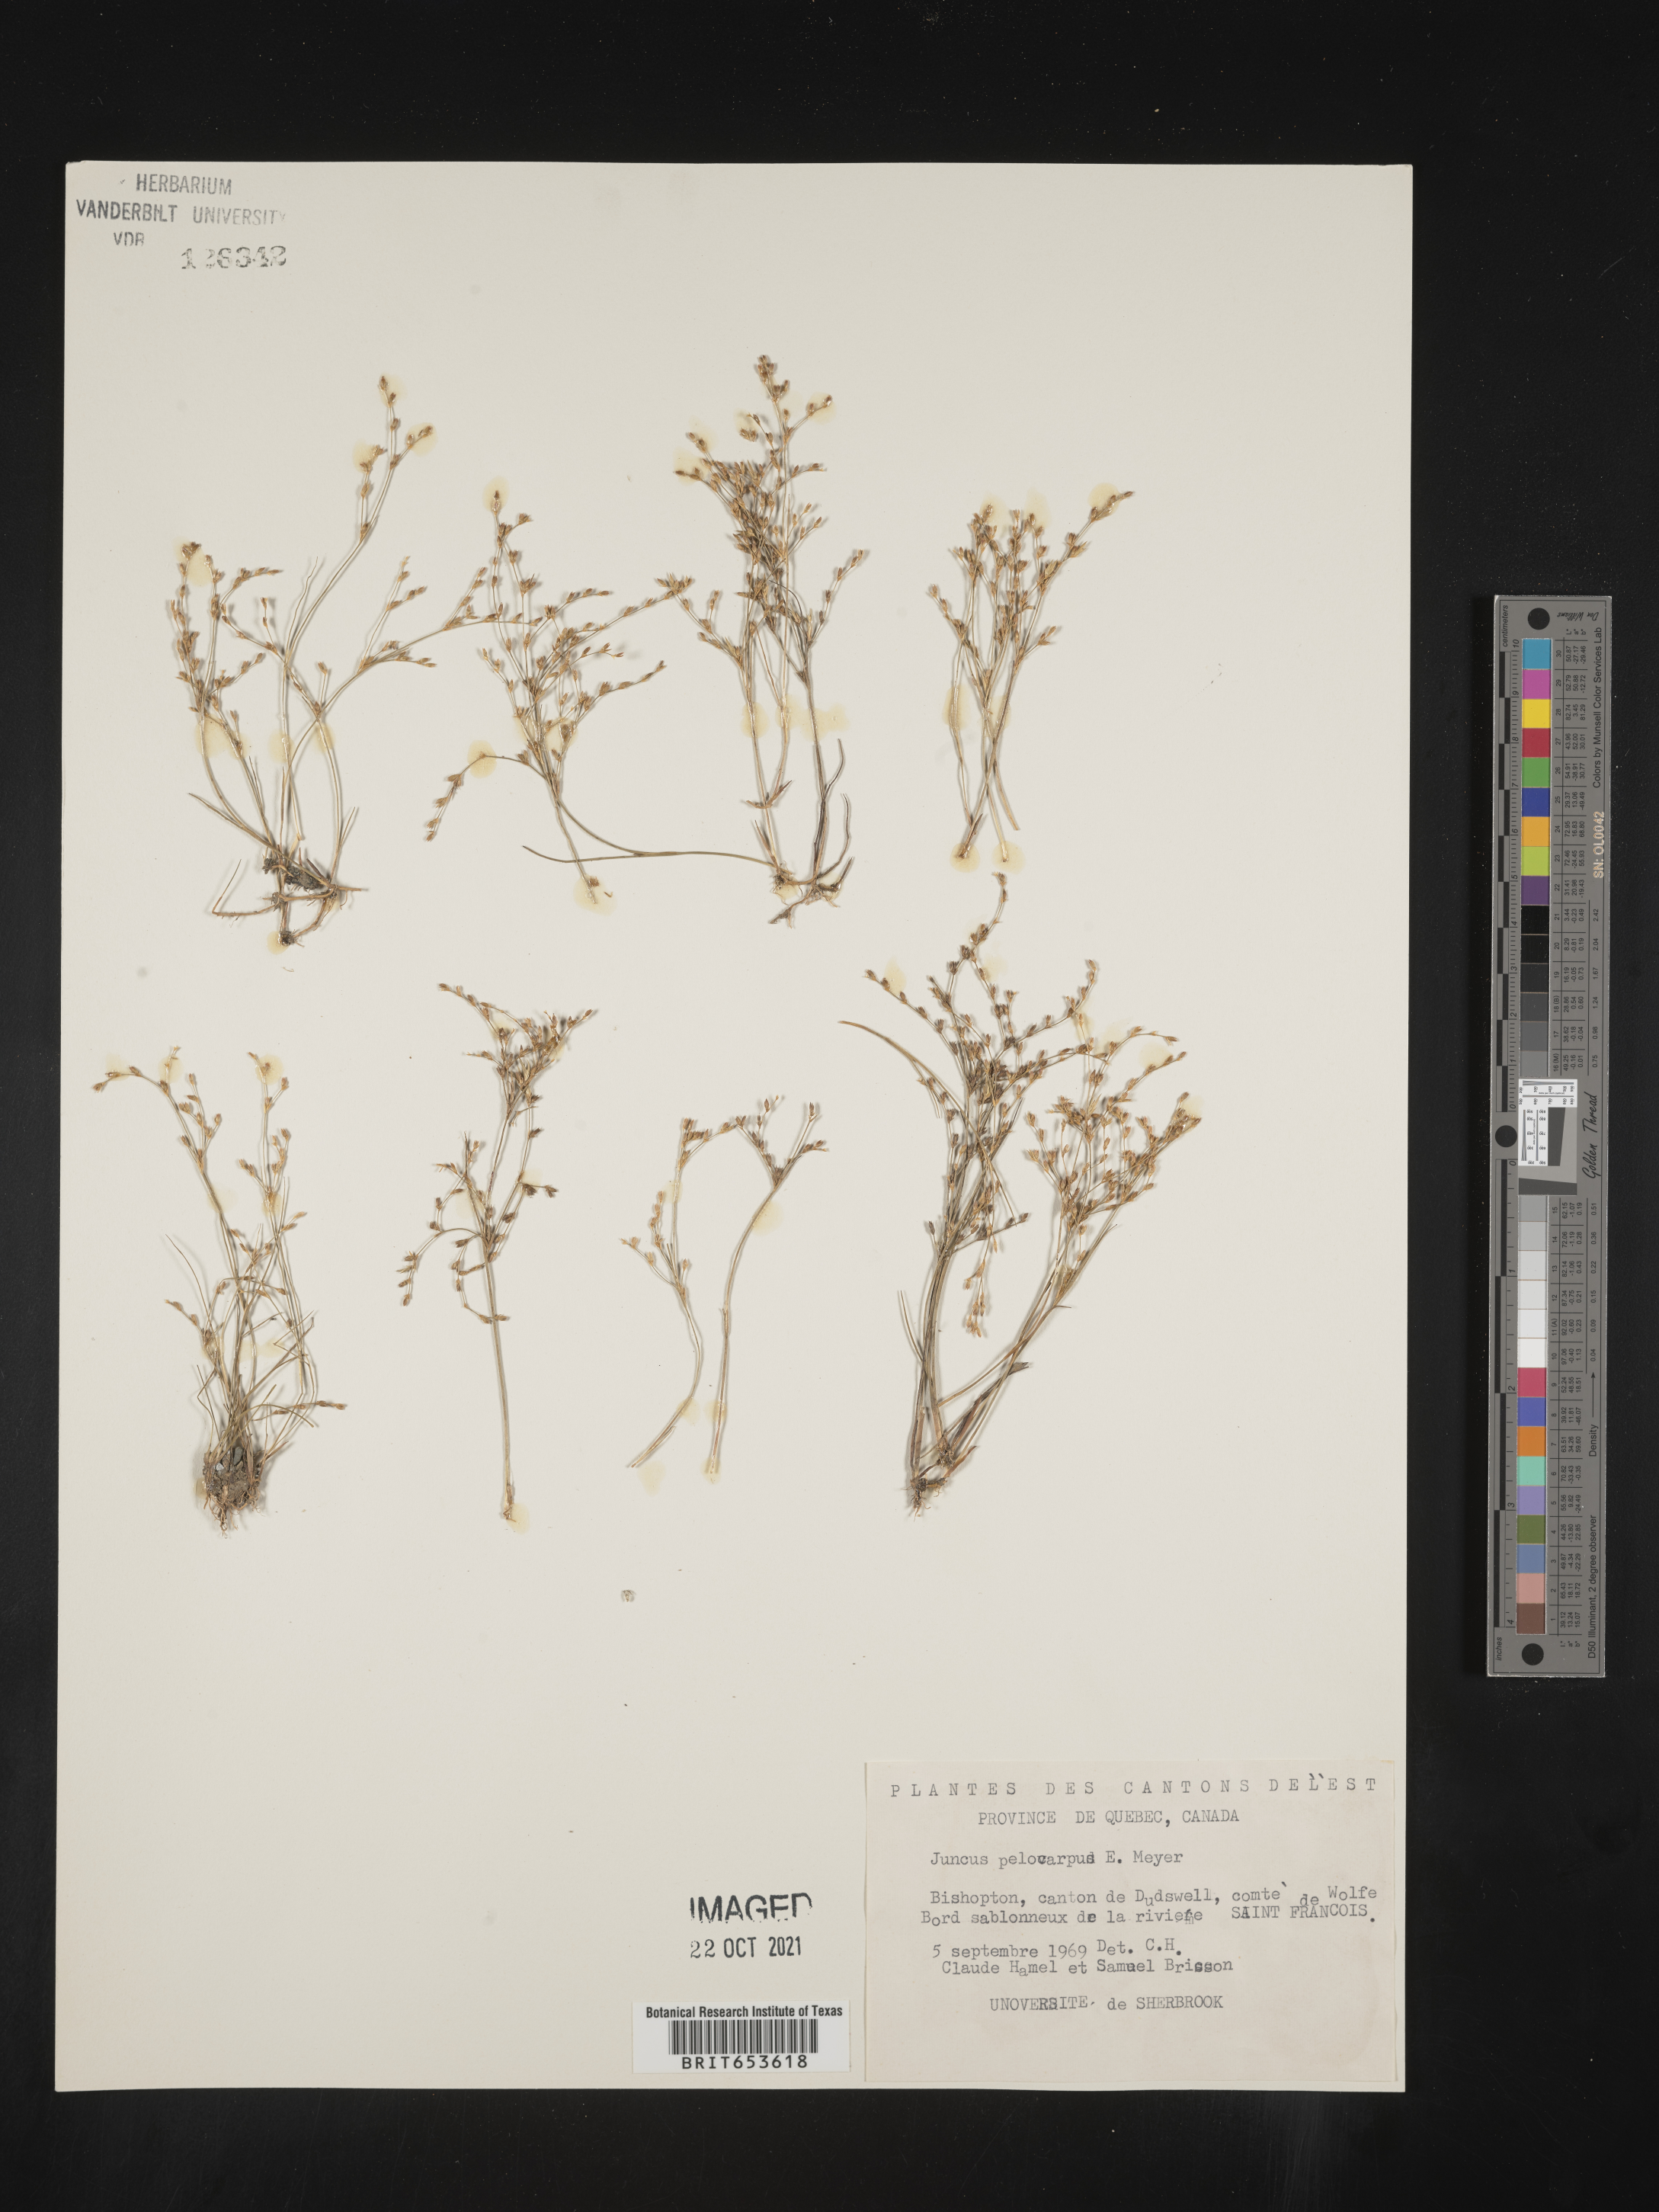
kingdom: Plantae
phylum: Tracheophyta
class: Liliopsida
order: Poales
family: Juncaceae
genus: Juncus
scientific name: Juncus
